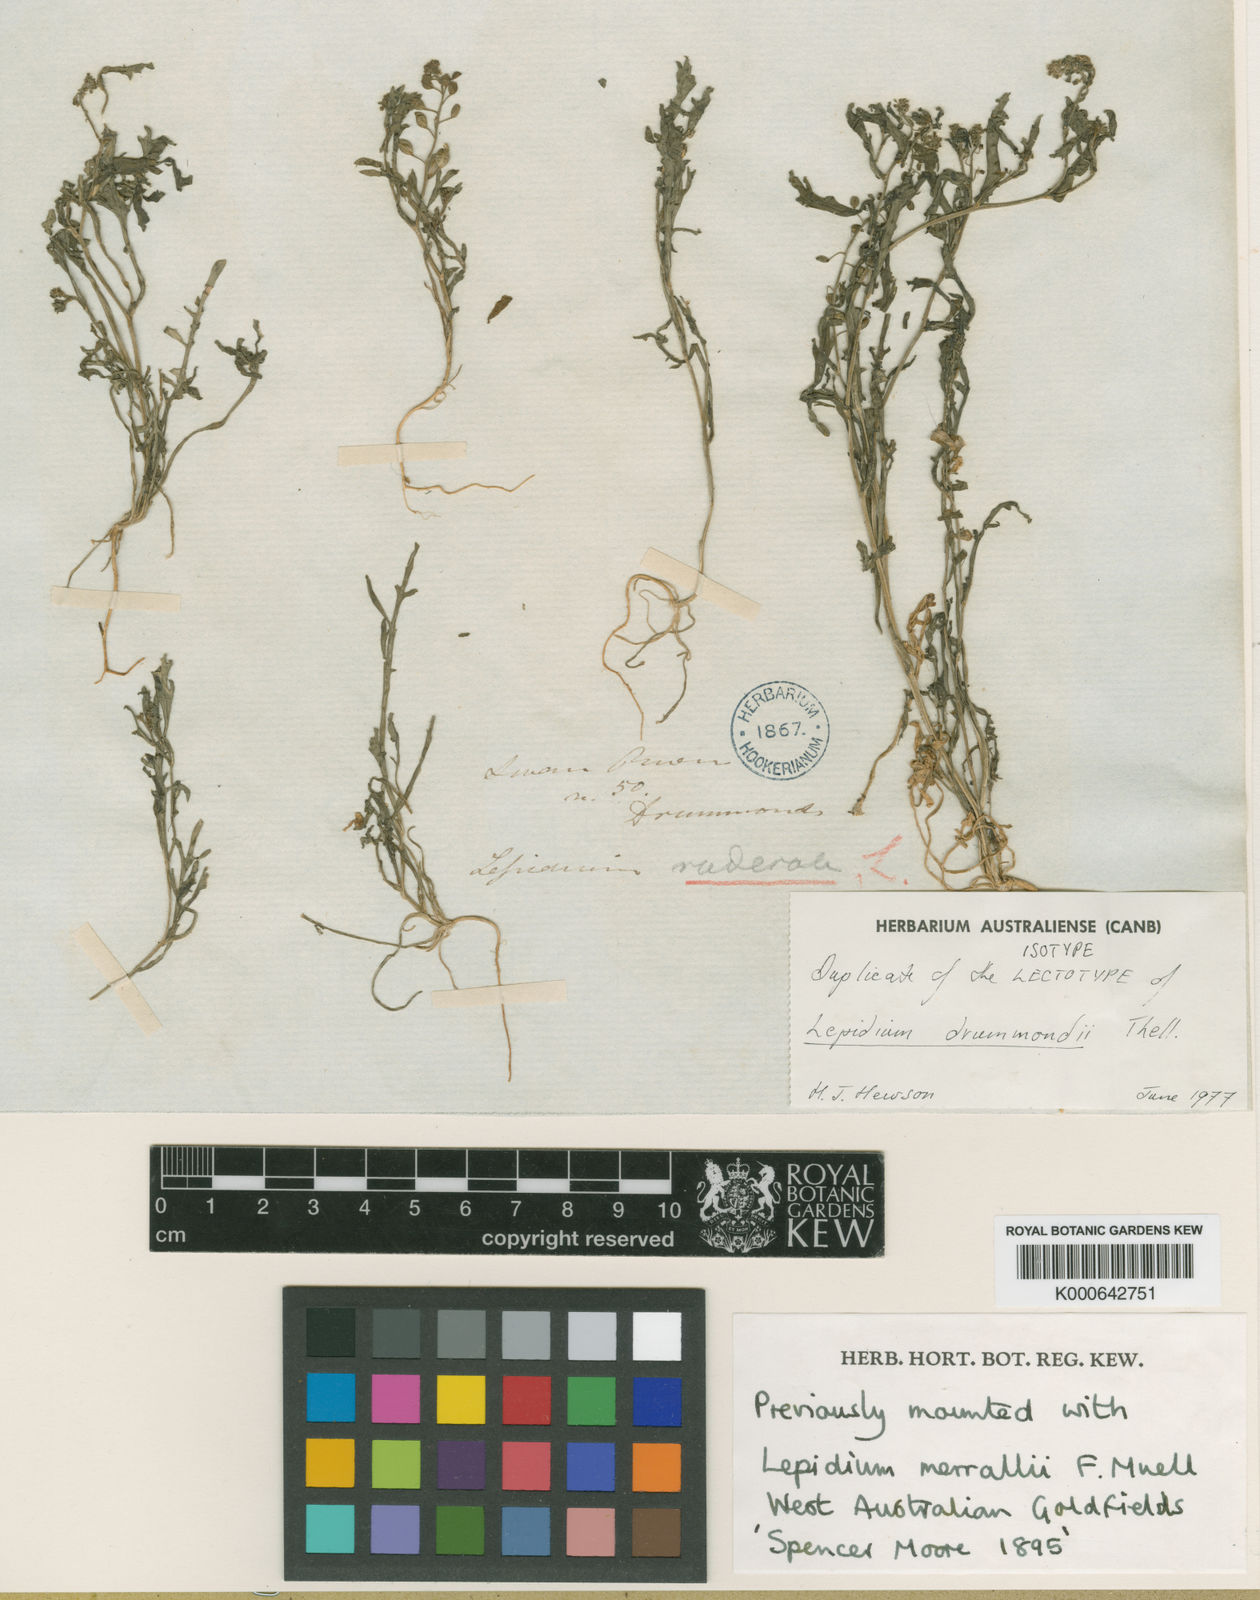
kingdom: Plantae
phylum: Tracheophyta
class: Magnoliopsida
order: Brassicales
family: Brassicaceae
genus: Lepidium
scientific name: Lepidium drummondii
